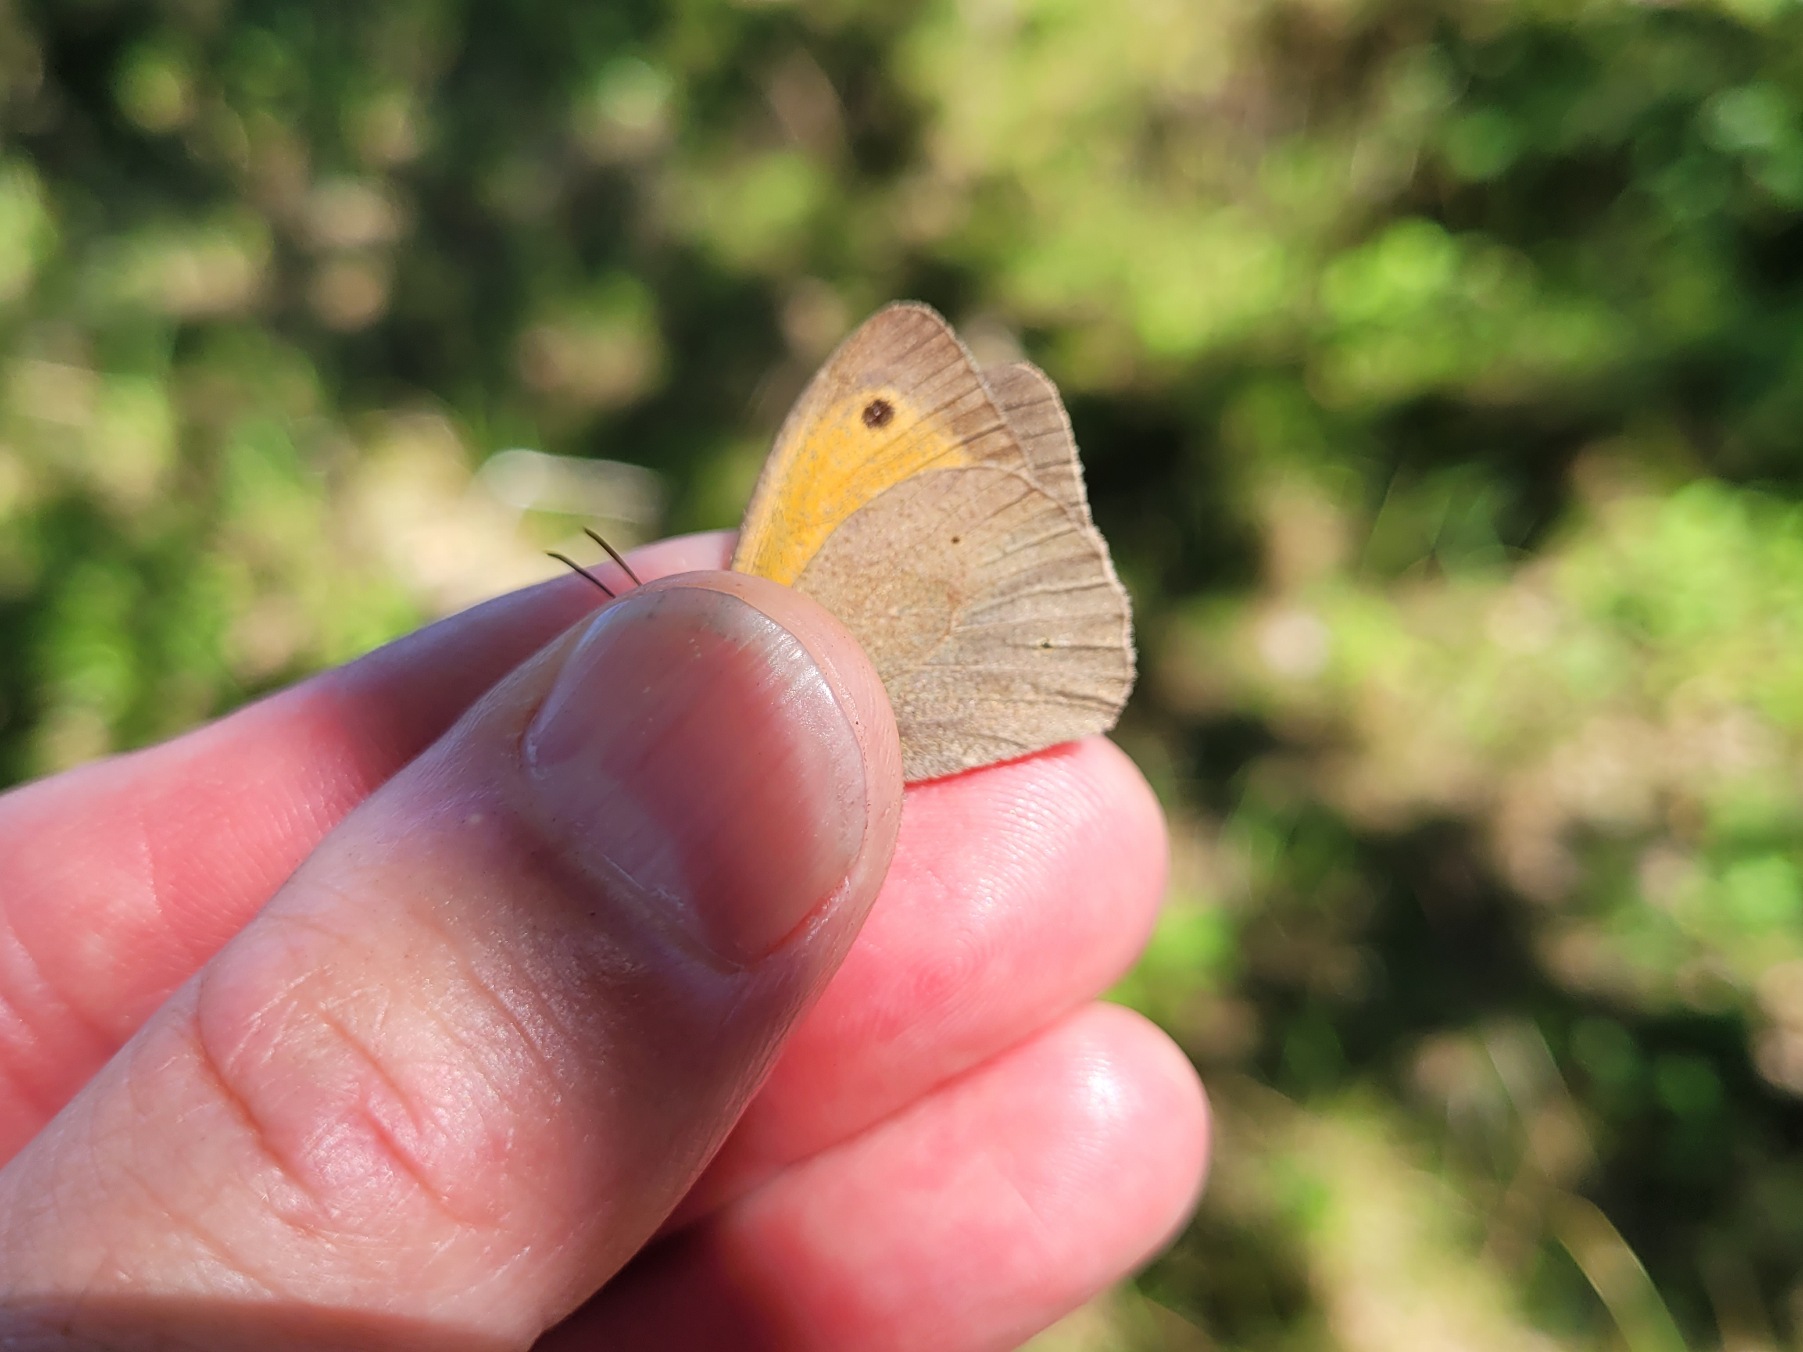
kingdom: Animalia
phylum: Arthropoda
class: Insecta
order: Lepidoptera
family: Nymphalidae
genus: Maniola
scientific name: Maniola jurtina
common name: Græsrandøje
